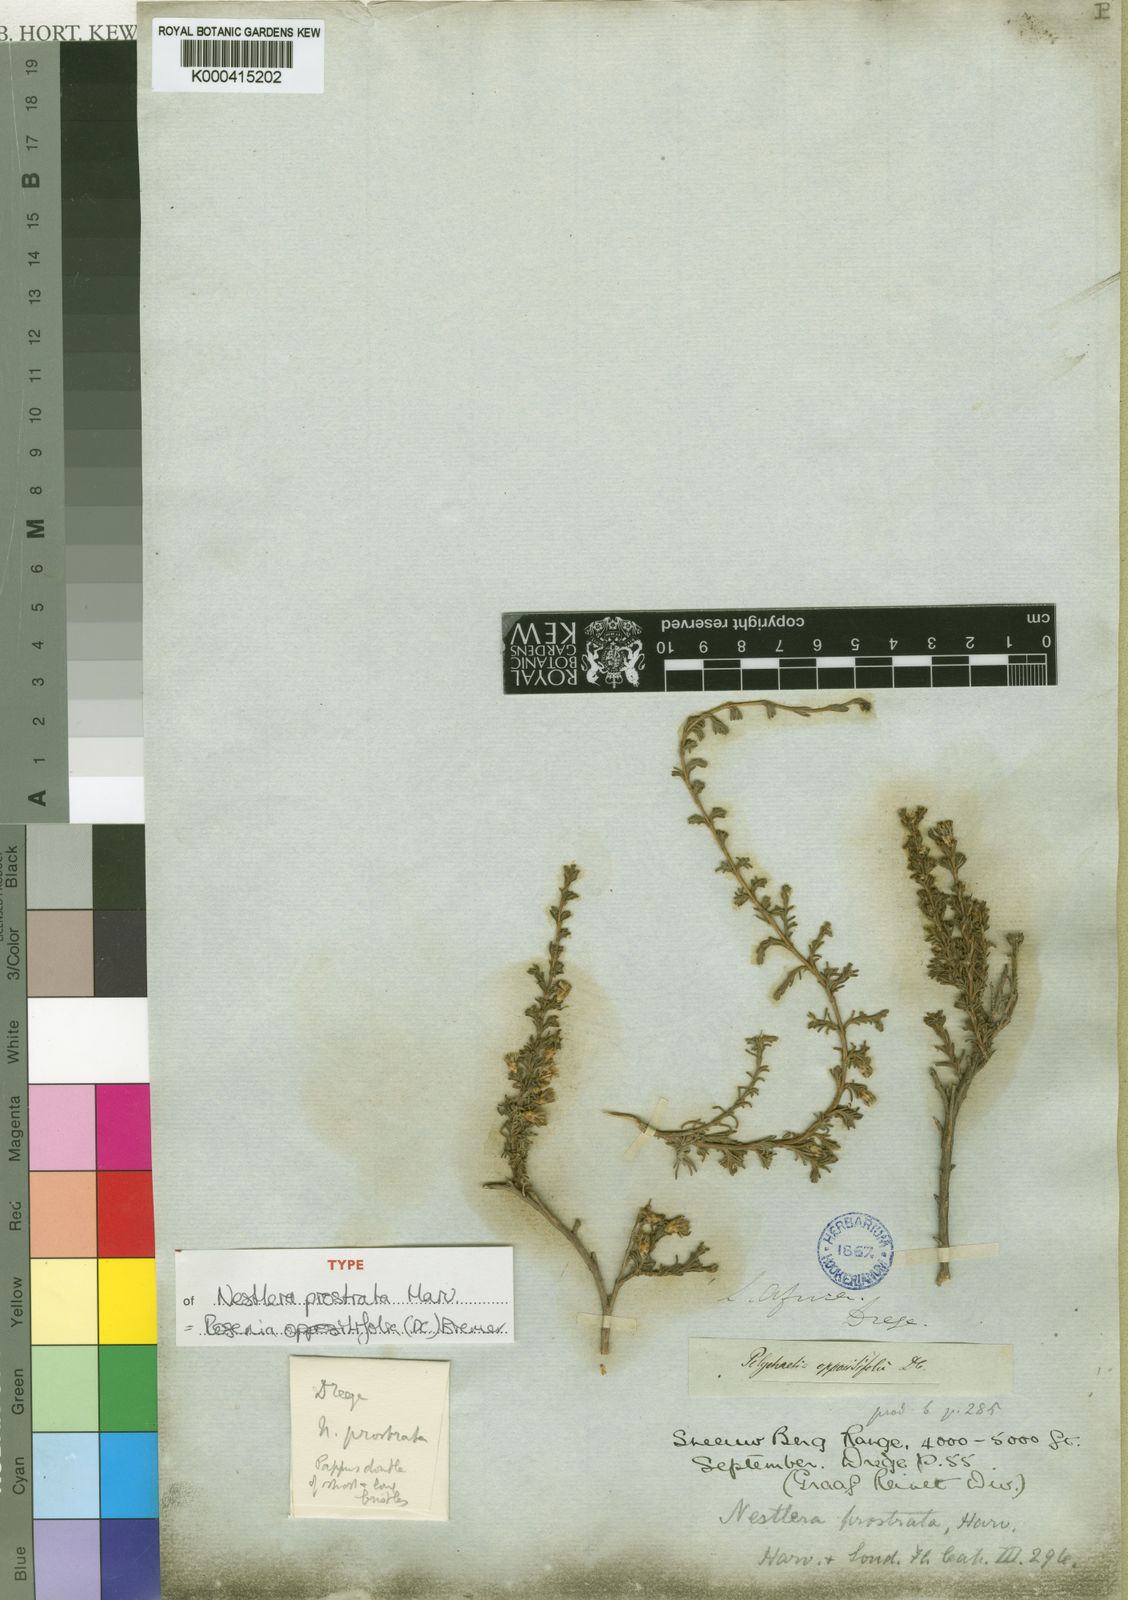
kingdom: Plantae
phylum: Tracheophyta
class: Magnoliopsida
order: Asterales
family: Asteraceae
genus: Oedera
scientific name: Oedera oppositifolia
